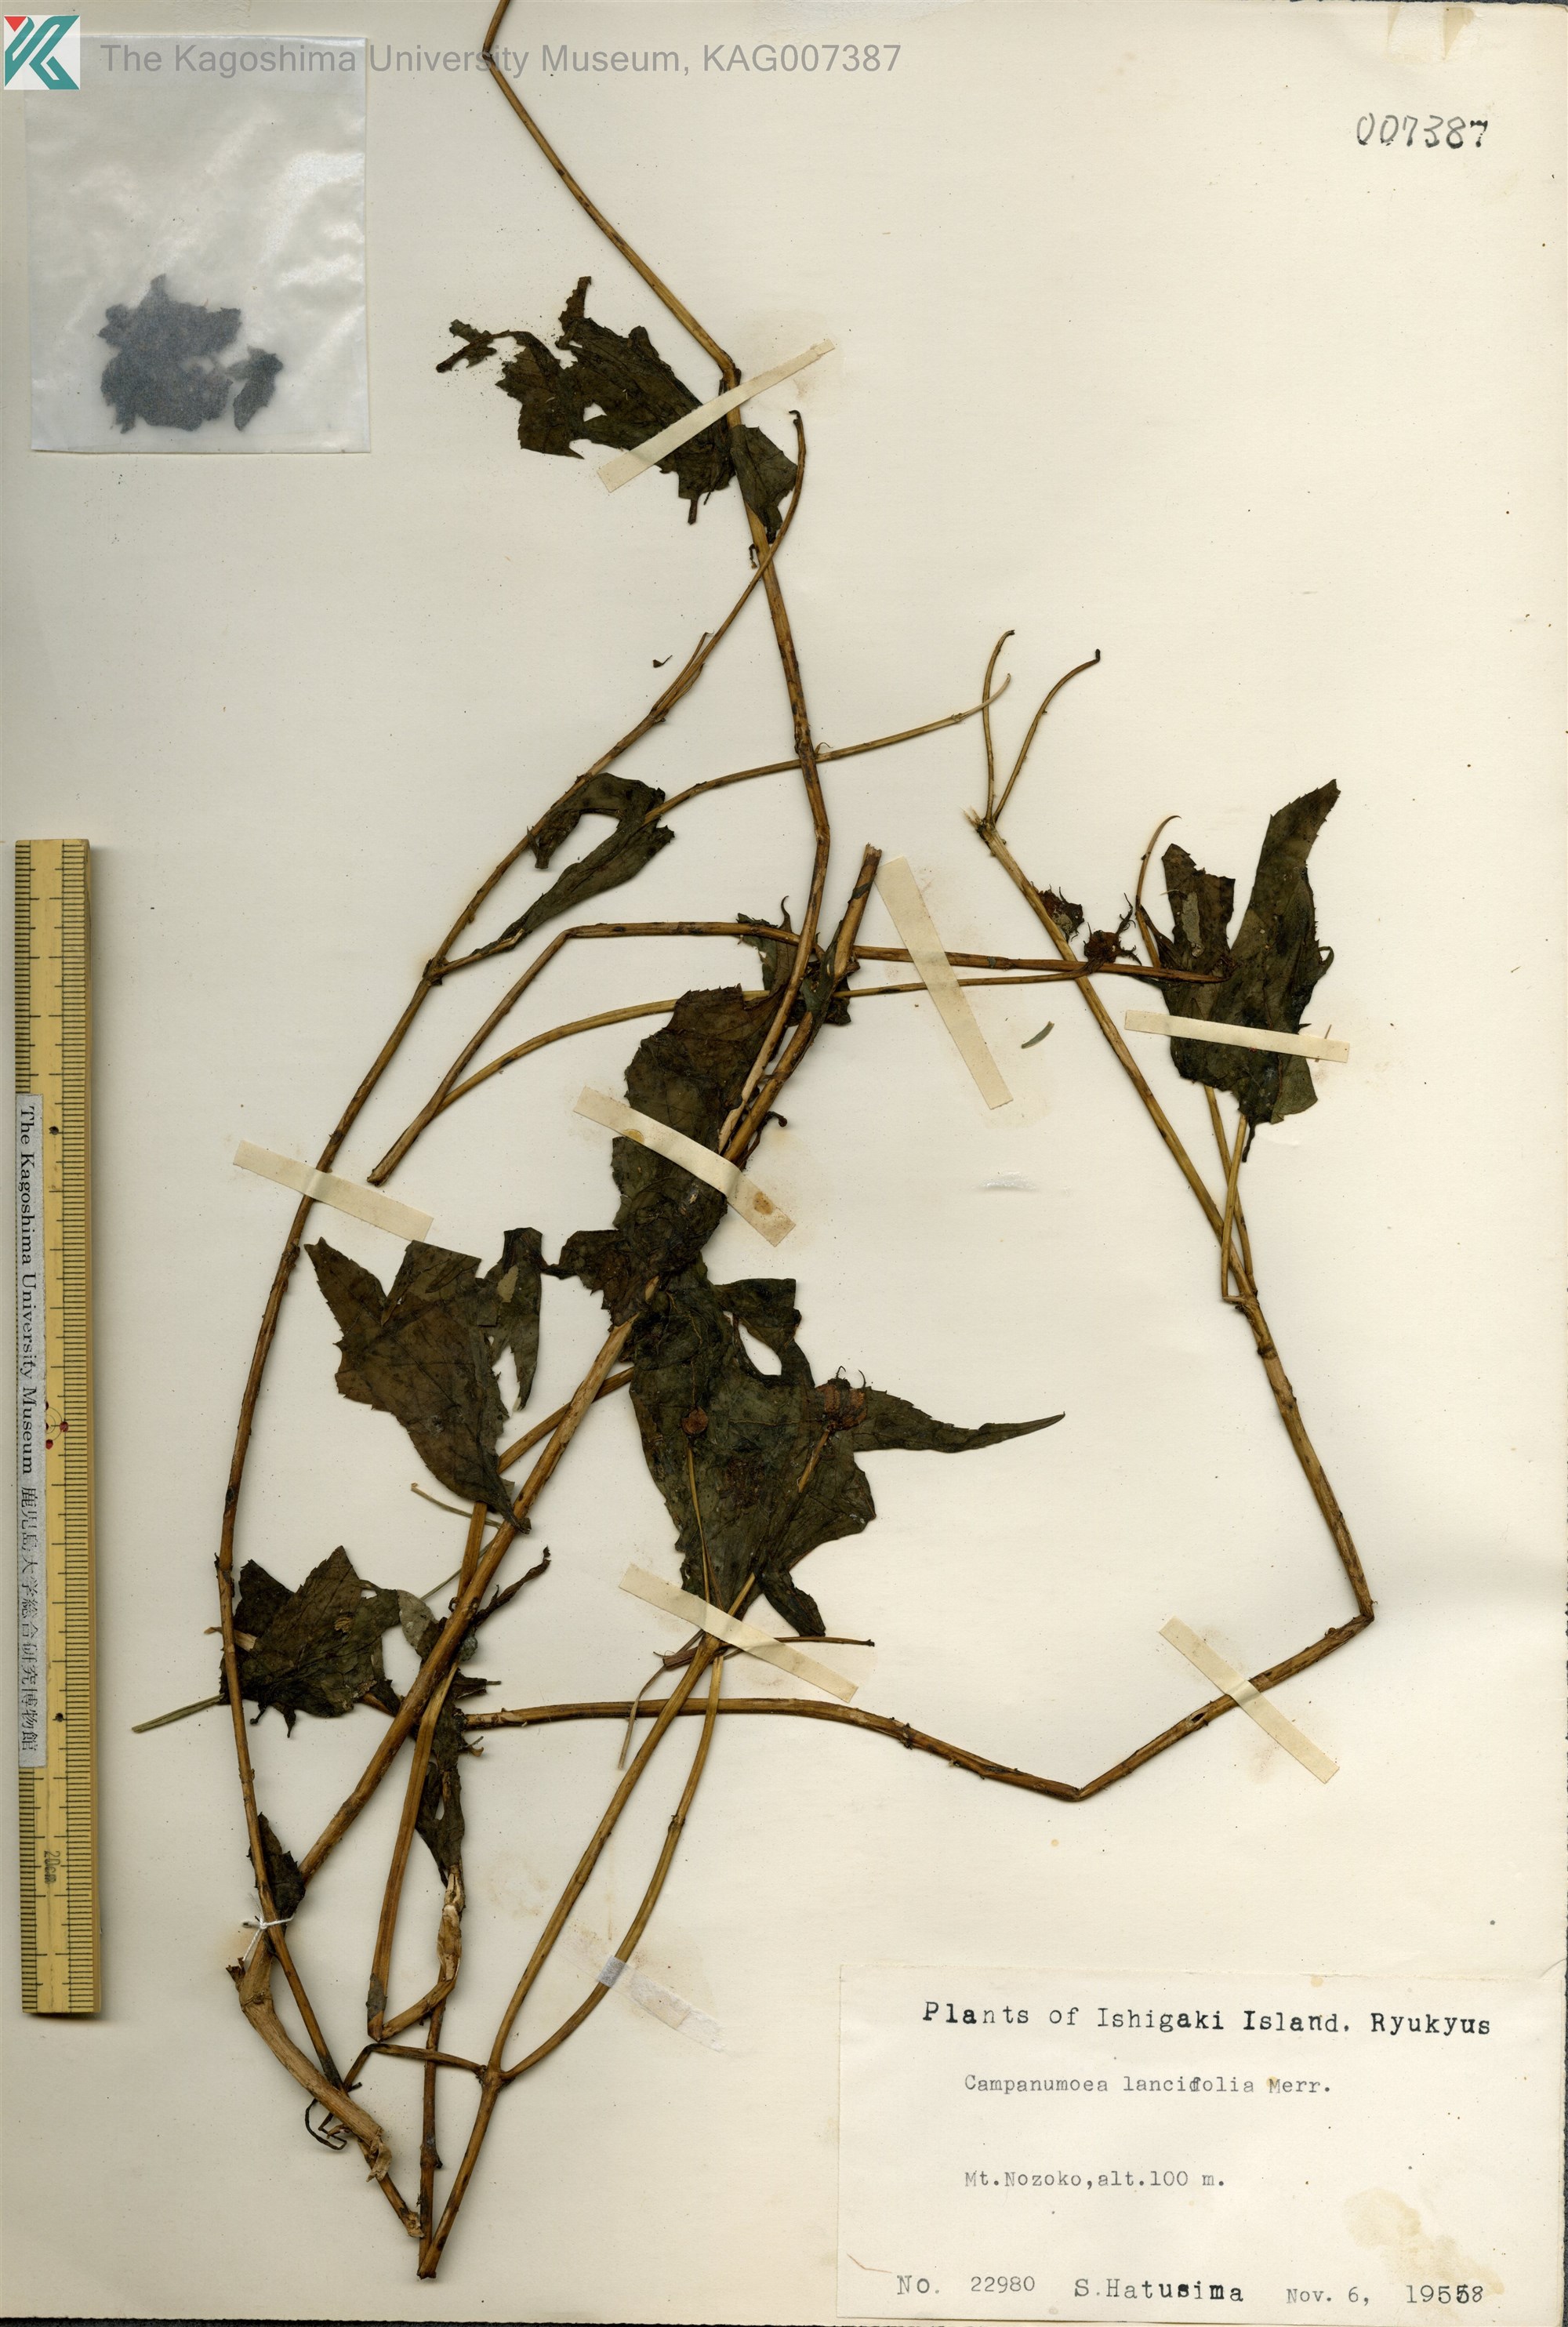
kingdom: Plantae
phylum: Tracheophyta
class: Magnoliopsida
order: Asterales
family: Campanulaceae
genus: Cyclocodon
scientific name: Cyclocodon lancifolius
